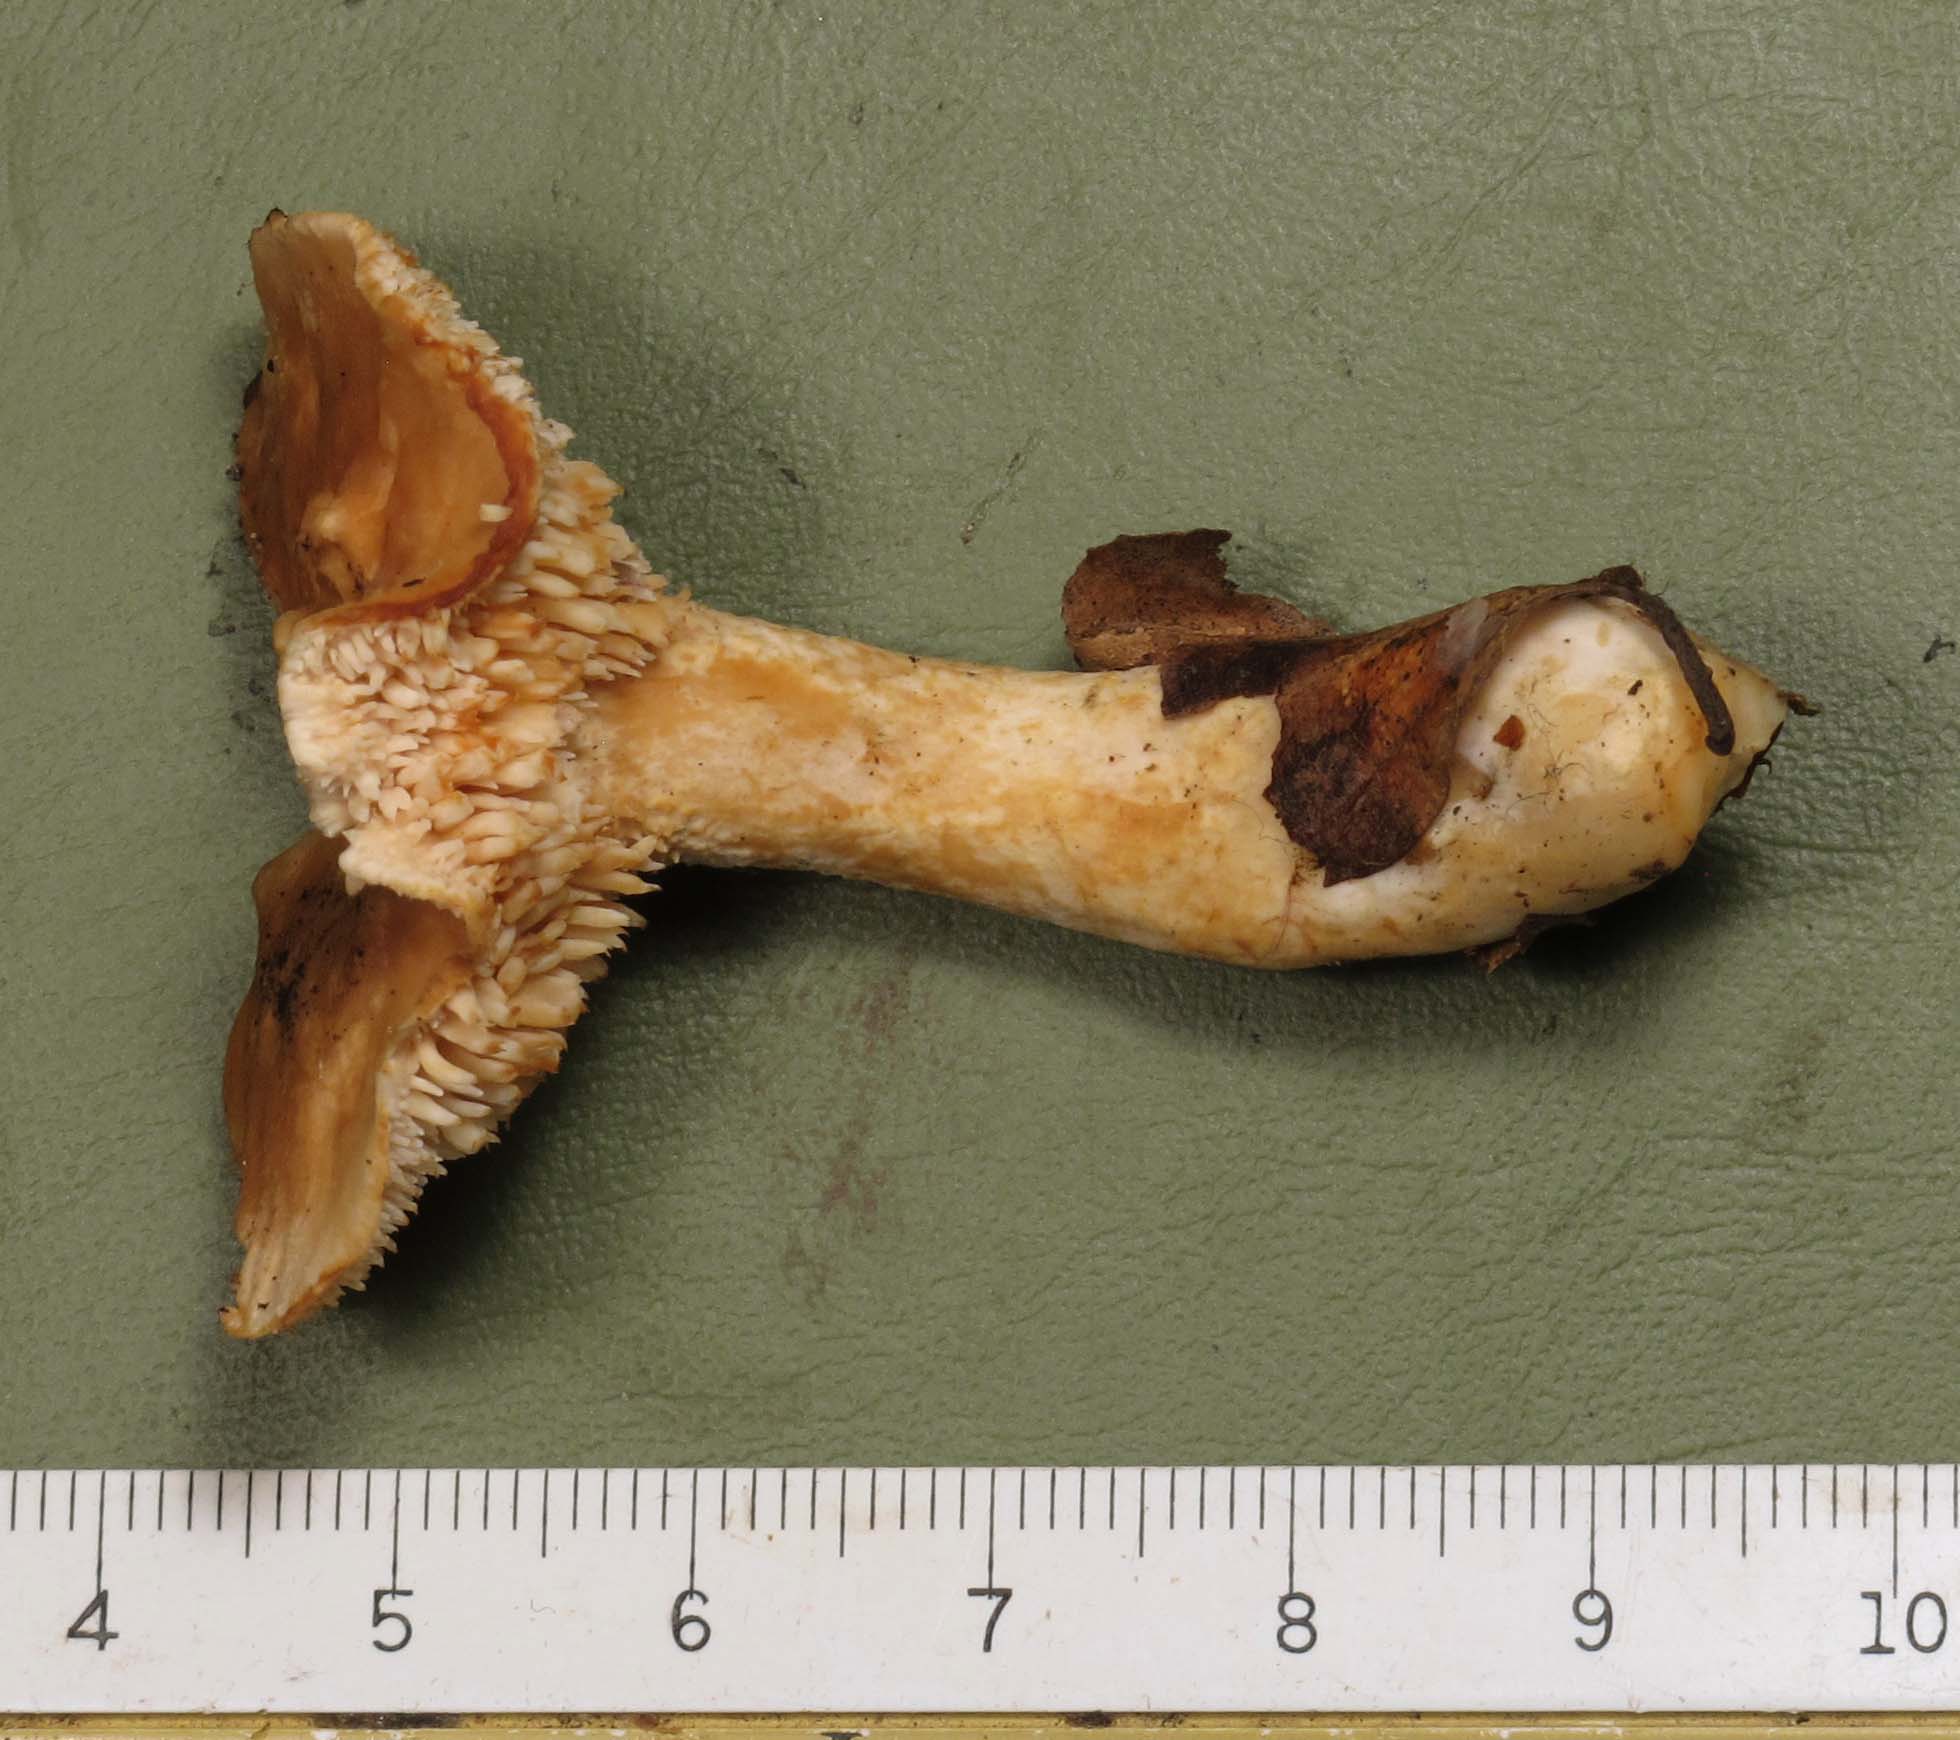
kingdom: Fungi
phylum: Basidiomycota
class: Agaricomycetes
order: Cantharellales
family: Hydnaceae
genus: Hydnum
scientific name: Hydnum rufescens
